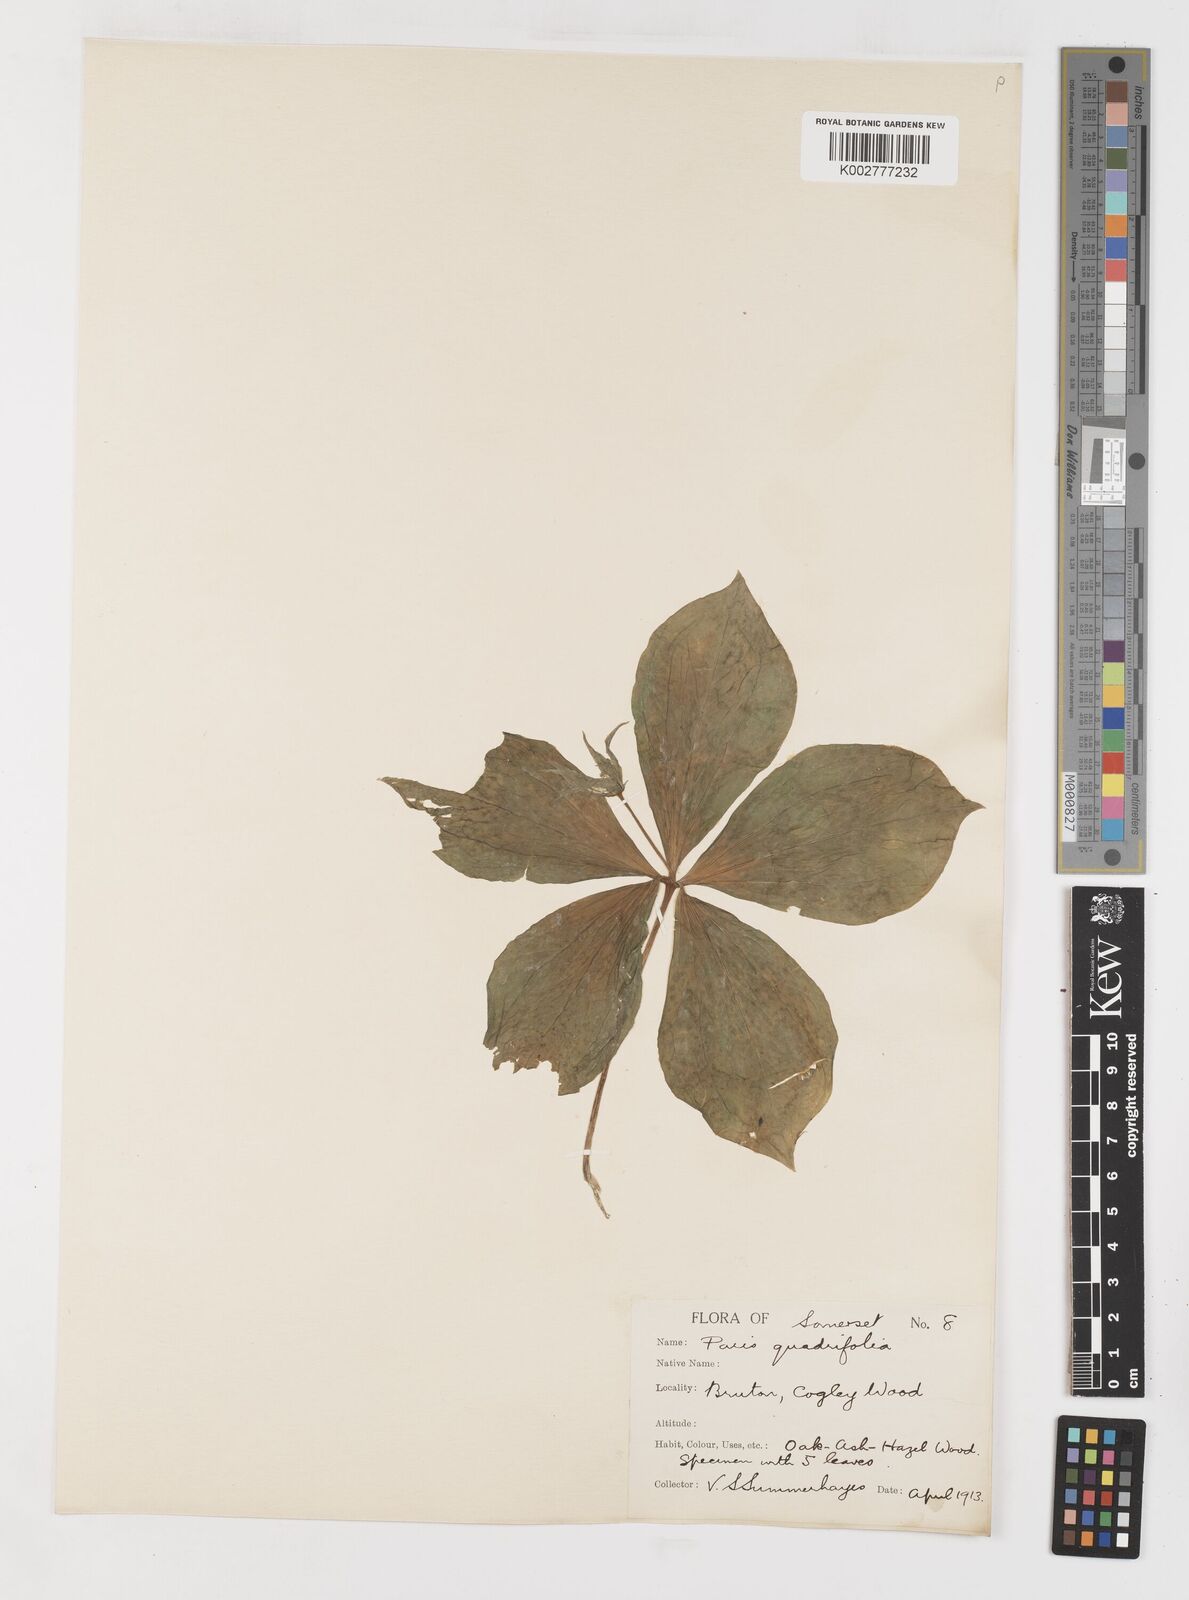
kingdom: Plantae
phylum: Tracheophyta
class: Liliopsida
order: Liliales
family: Melanthiaceae
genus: Paris
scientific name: Paris quadrifolia
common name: Herb-paris
